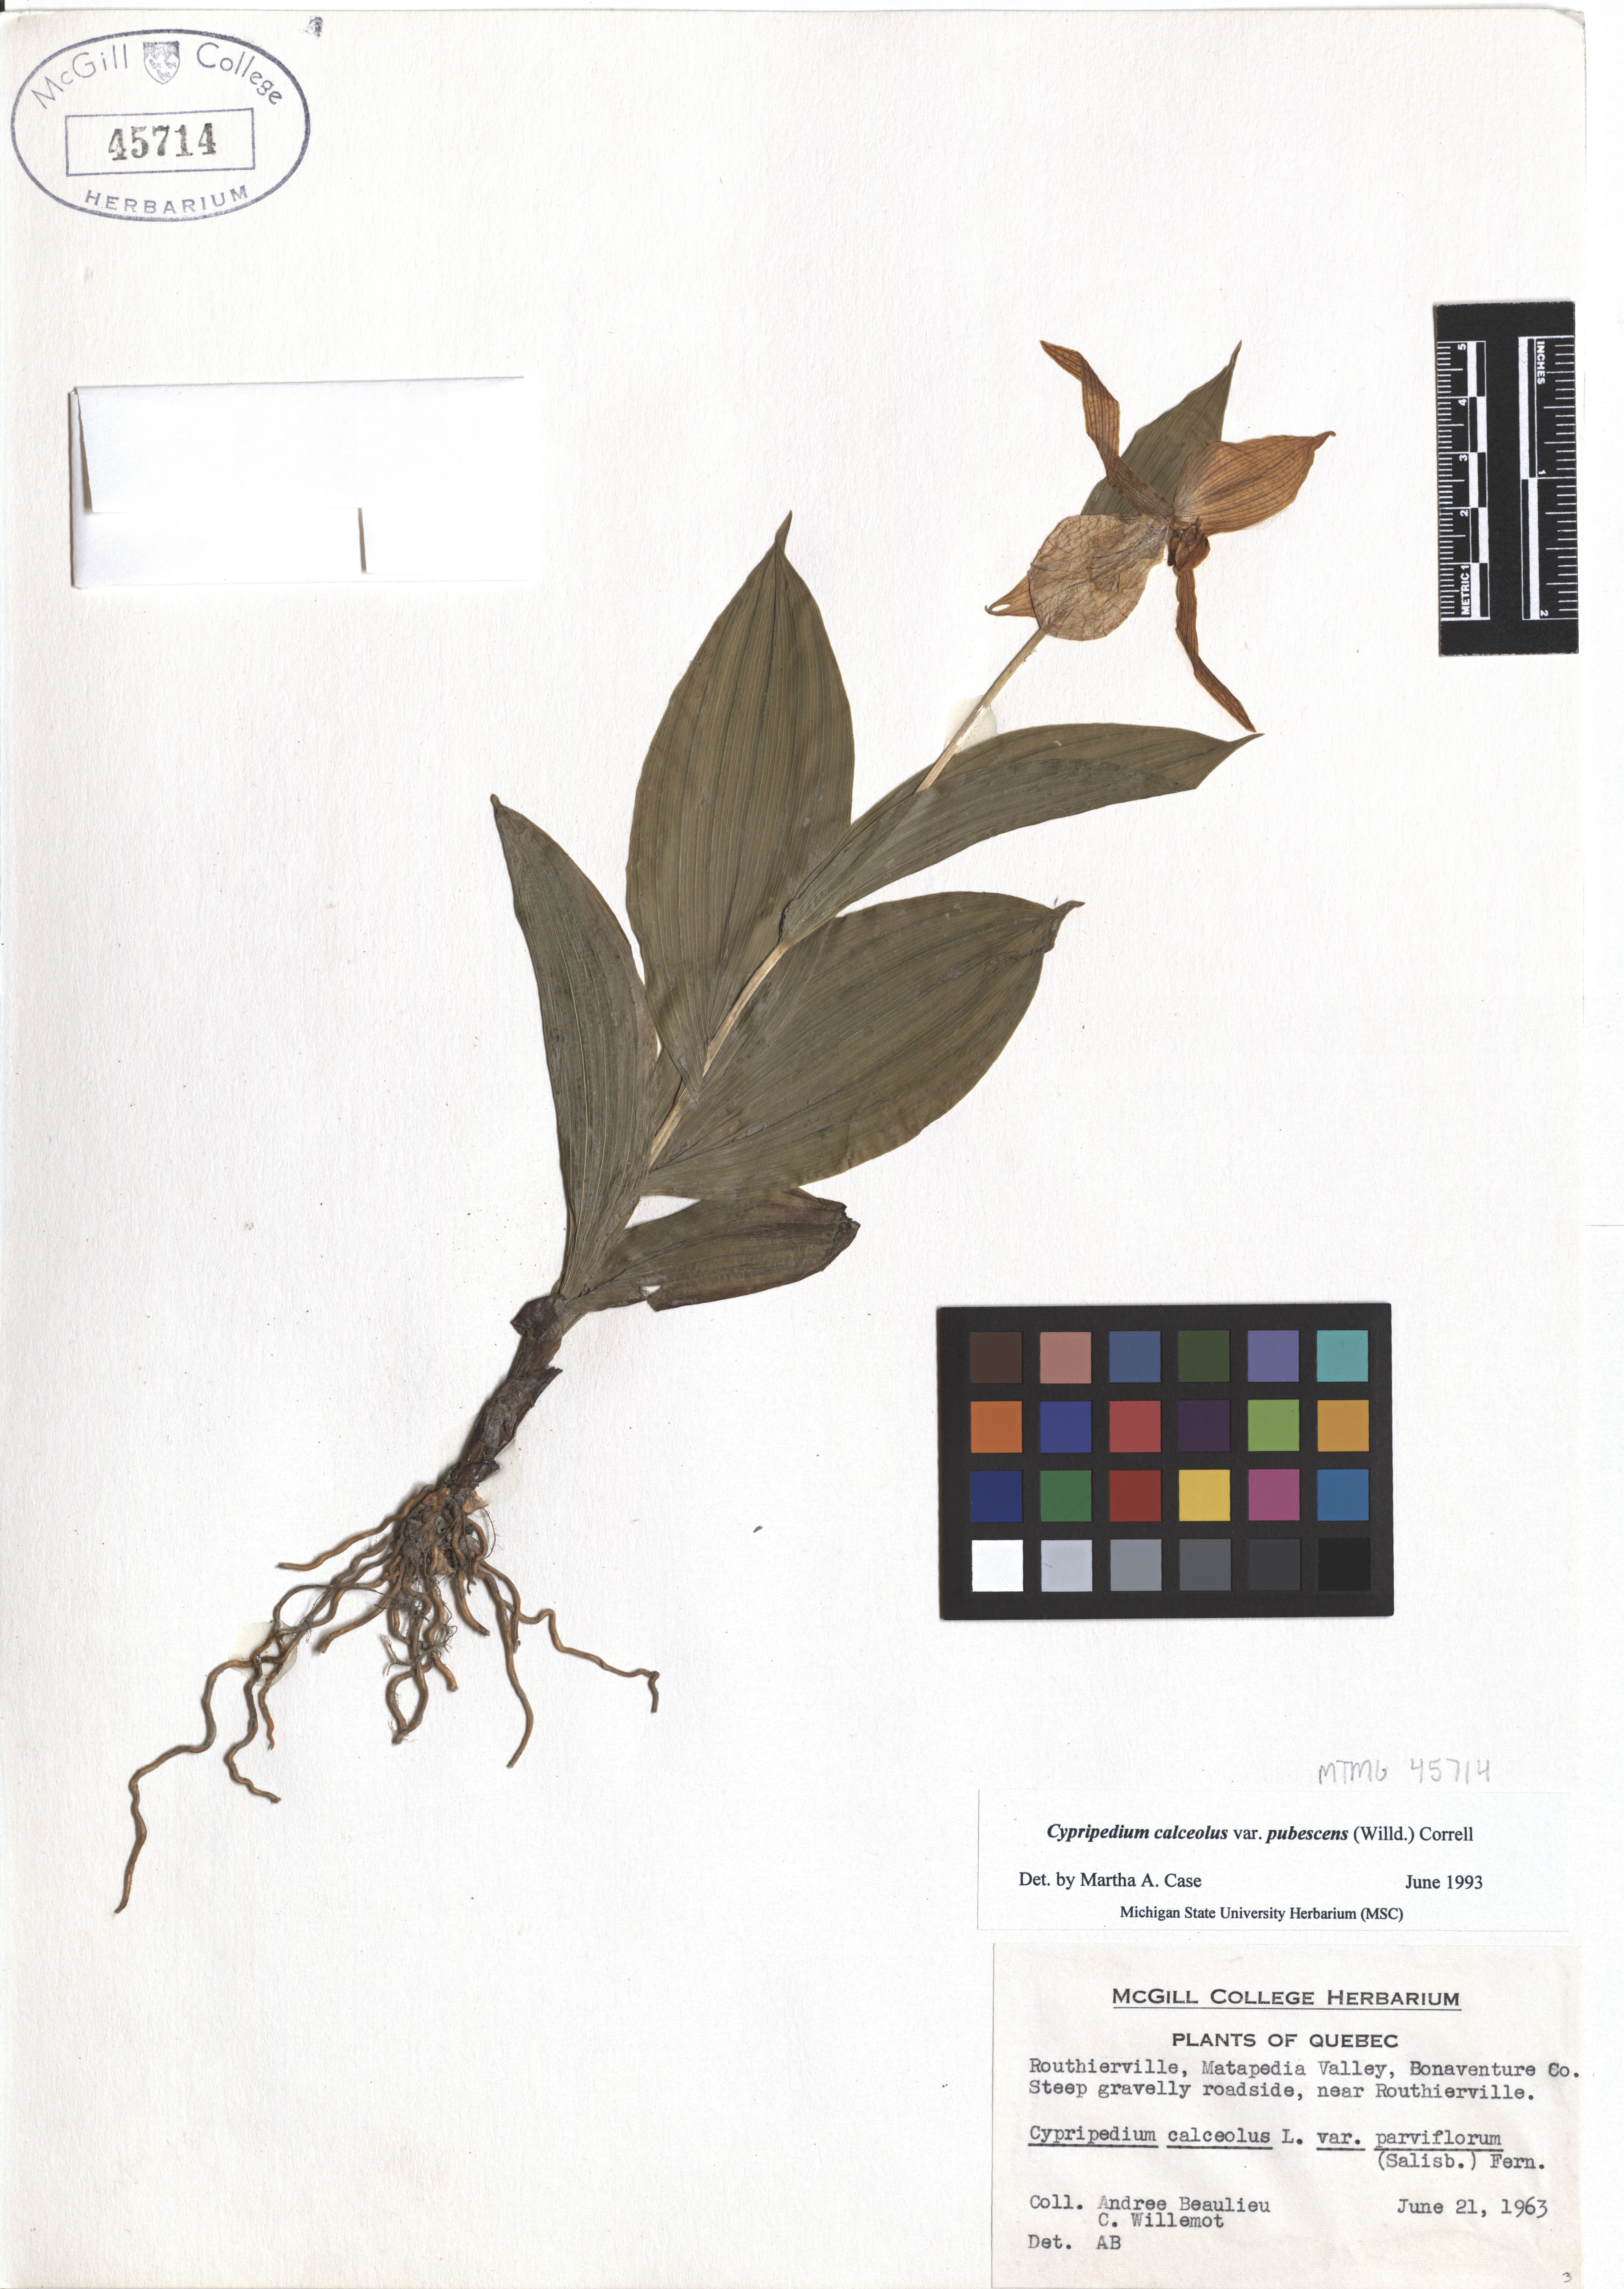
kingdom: Plantae
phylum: Tracheophyta
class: Liliopsida
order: Asparagales
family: Orchidaceae
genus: Cypripedium
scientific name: Cypripedium calceolus
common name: Lady's-slipper
